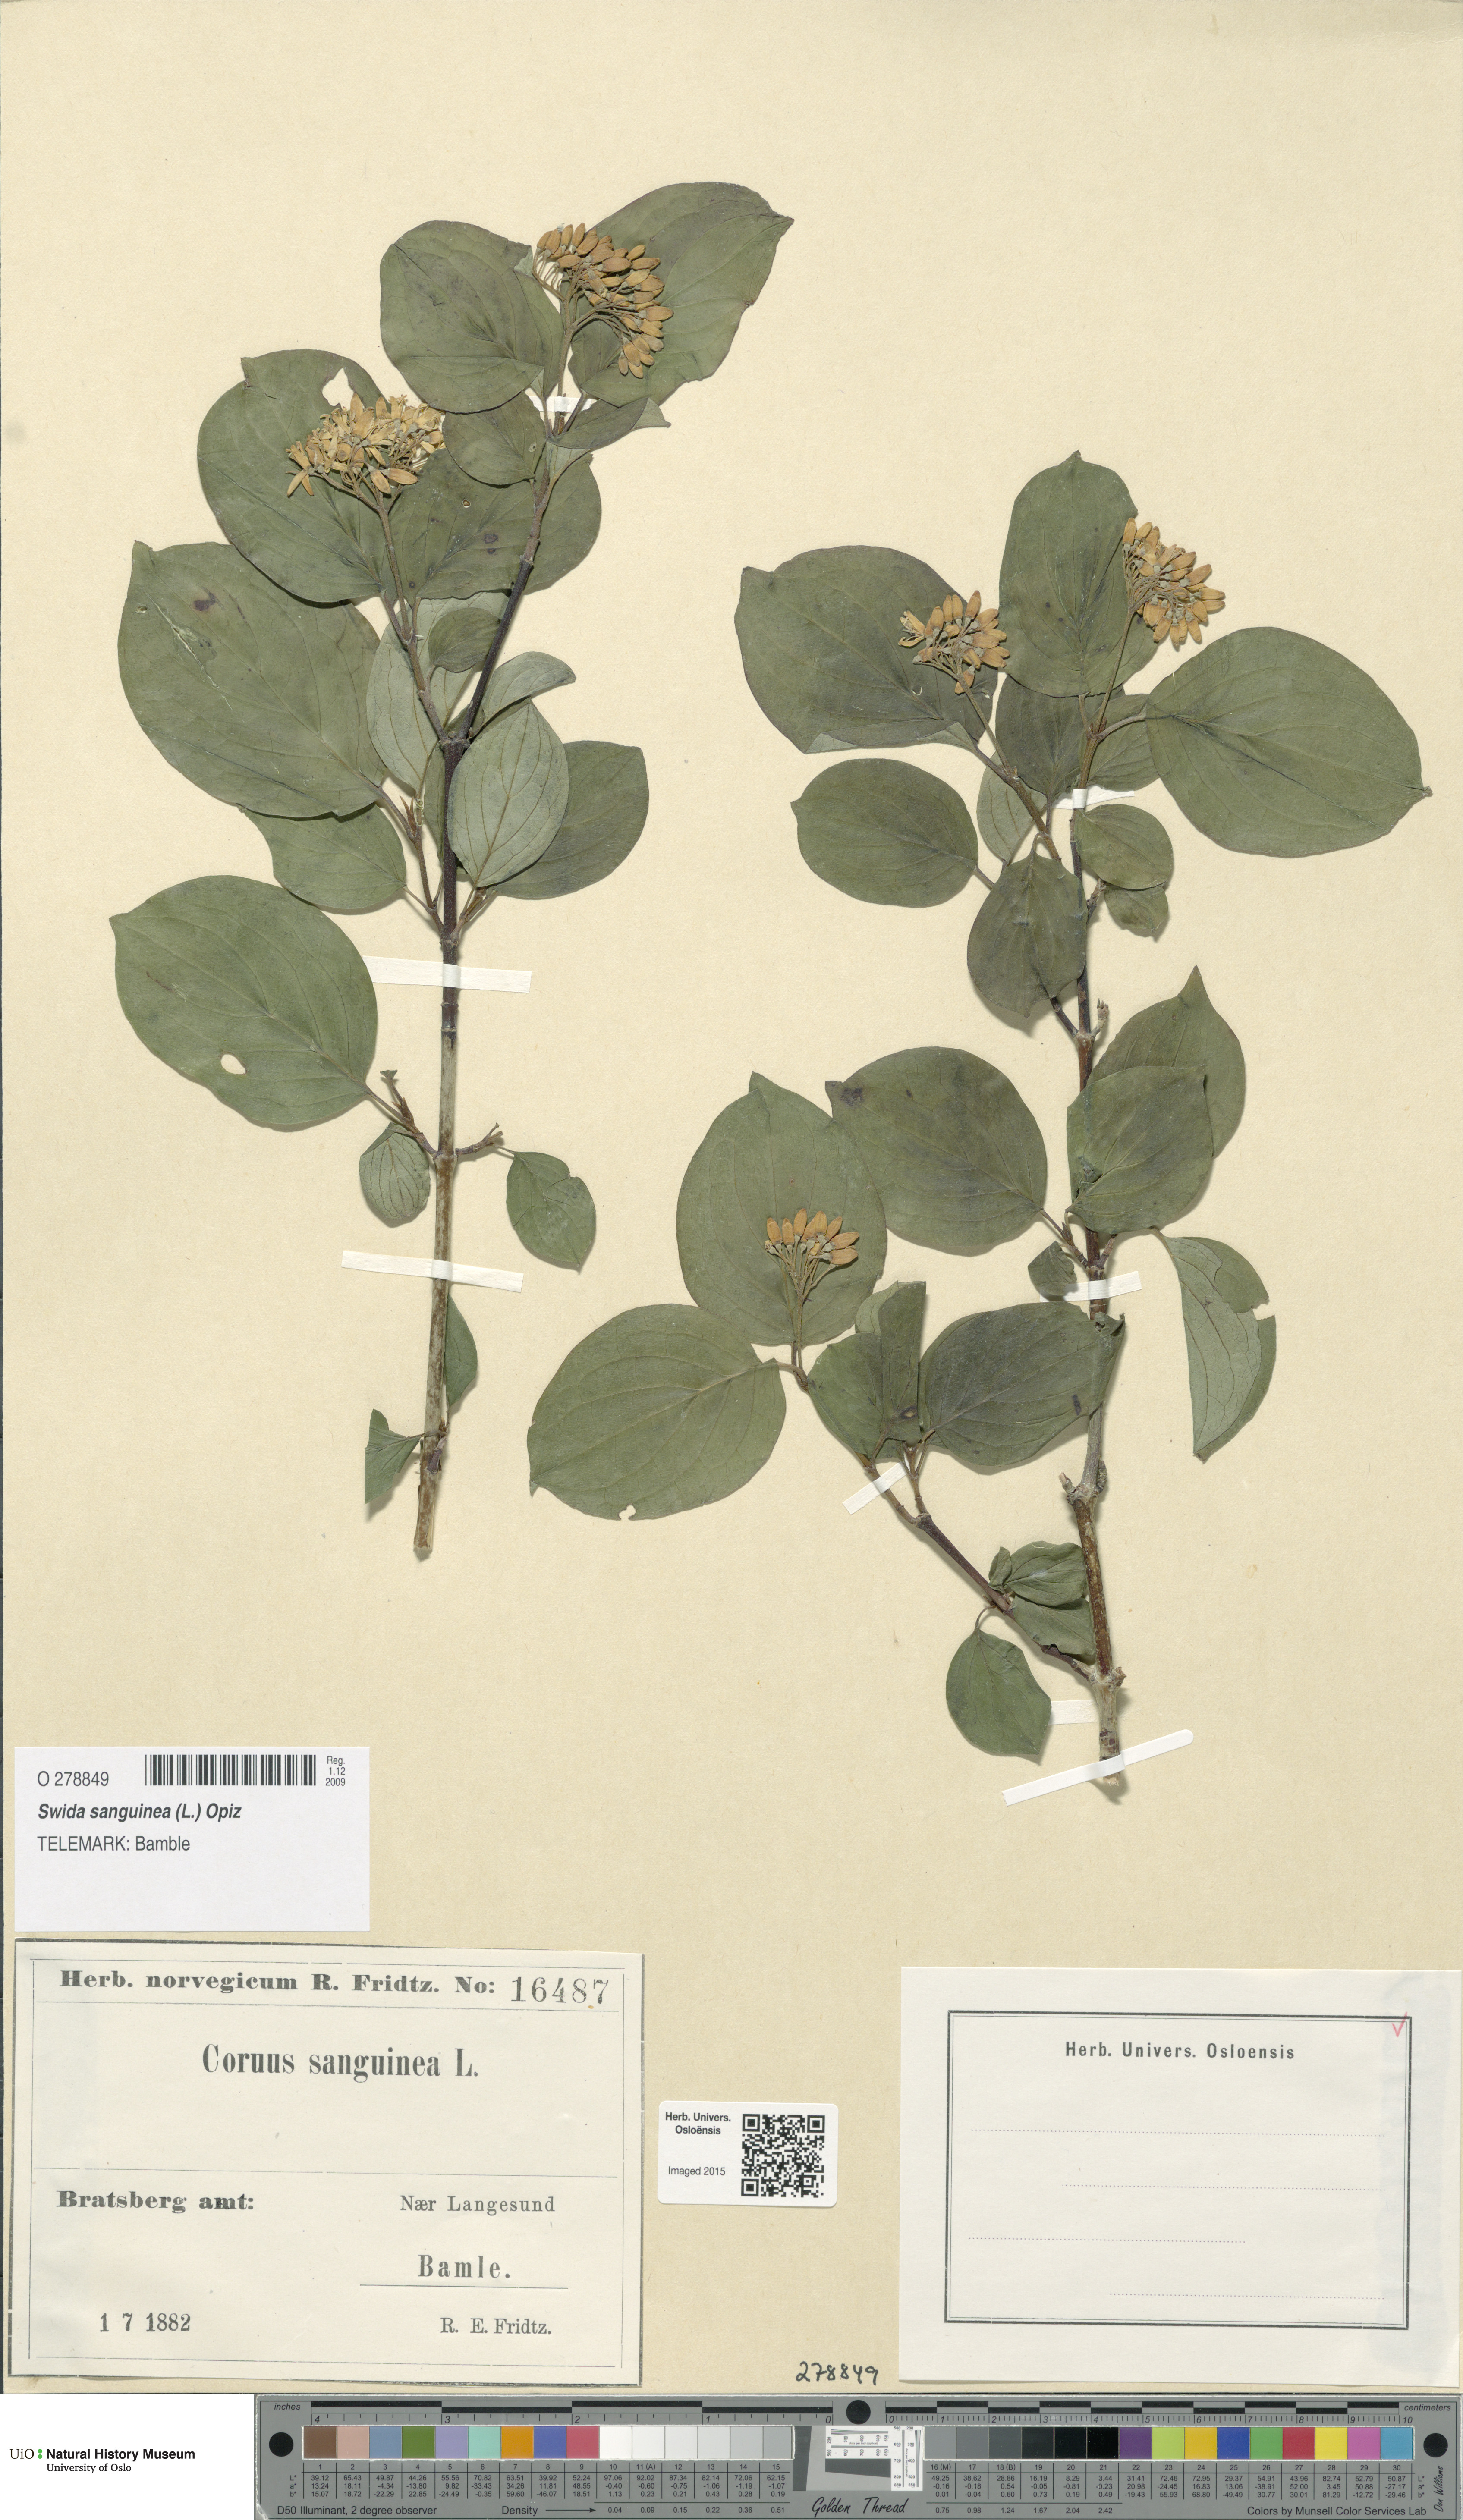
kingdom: Plantae
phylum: Tracheophyta
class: Magnoliopsida
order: Cornales
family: Cornaceae
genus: Cornus
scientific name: Cornus sanguinea
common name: Dogwood
